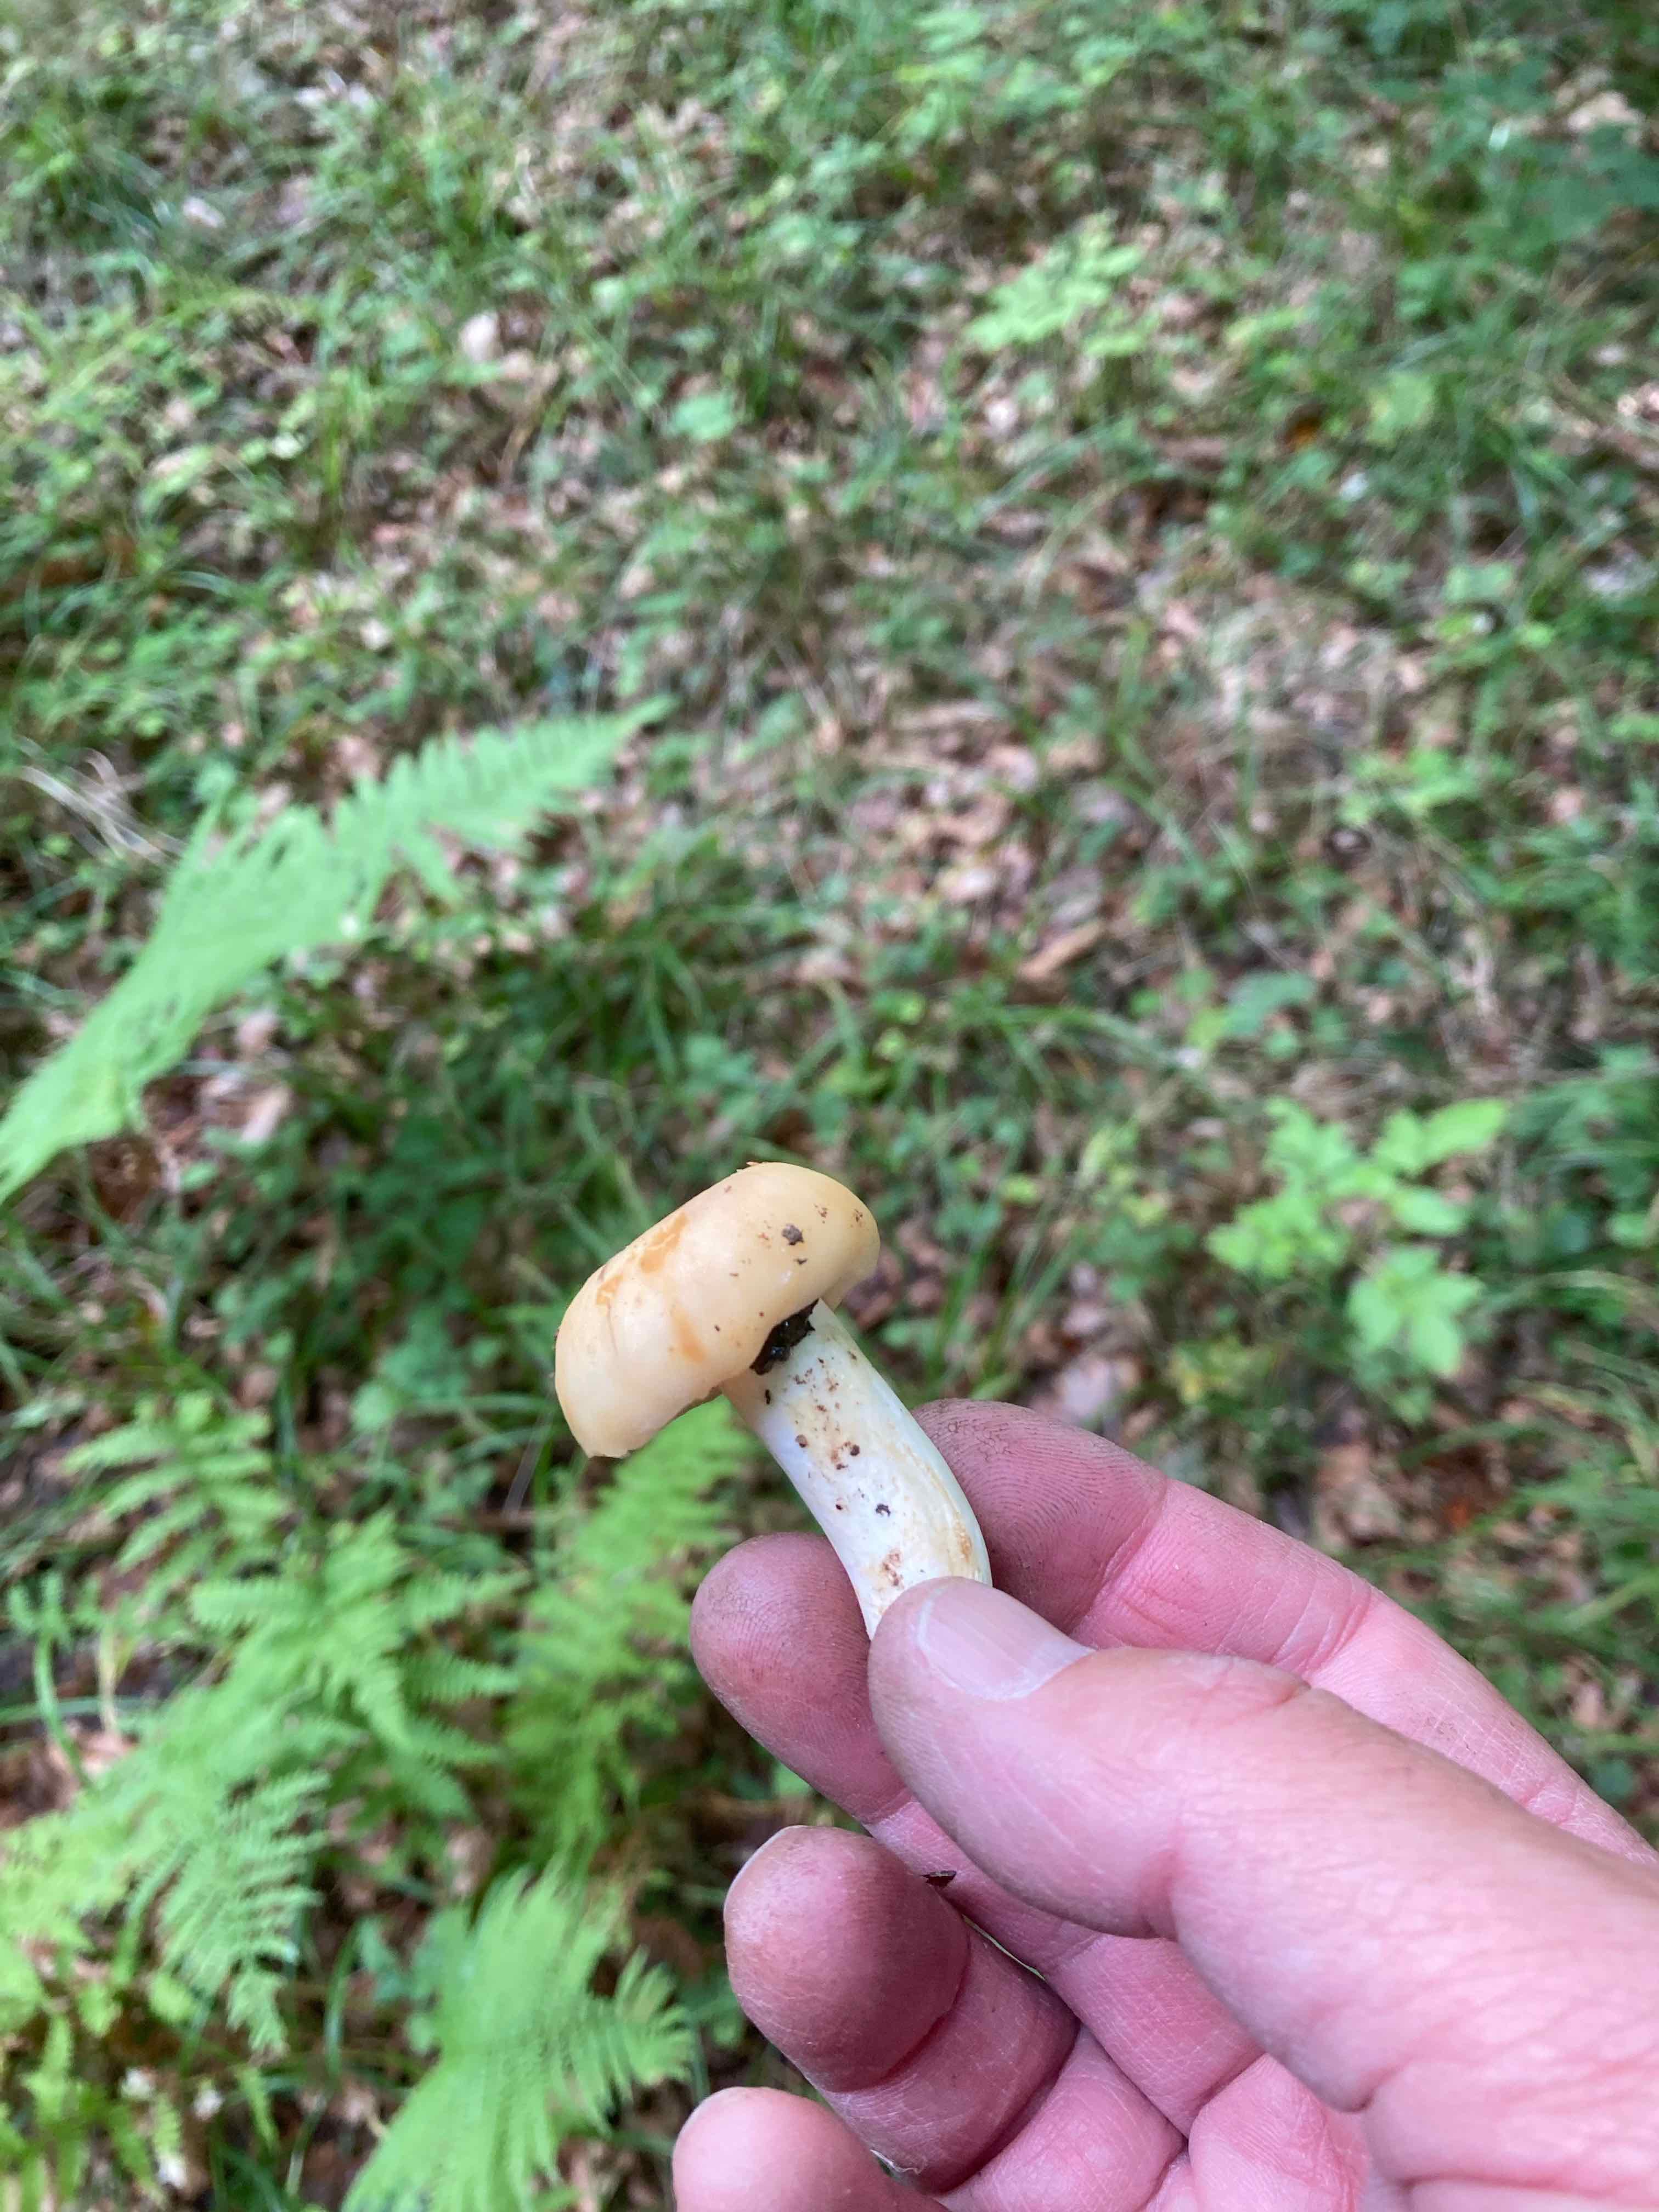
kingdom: Fungi
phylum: Basidiomycota
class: Agaricomycetes
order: Russulales
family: Russulaceae
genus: Russula
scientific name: Russula farinipes
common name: gul kam-skørhat
